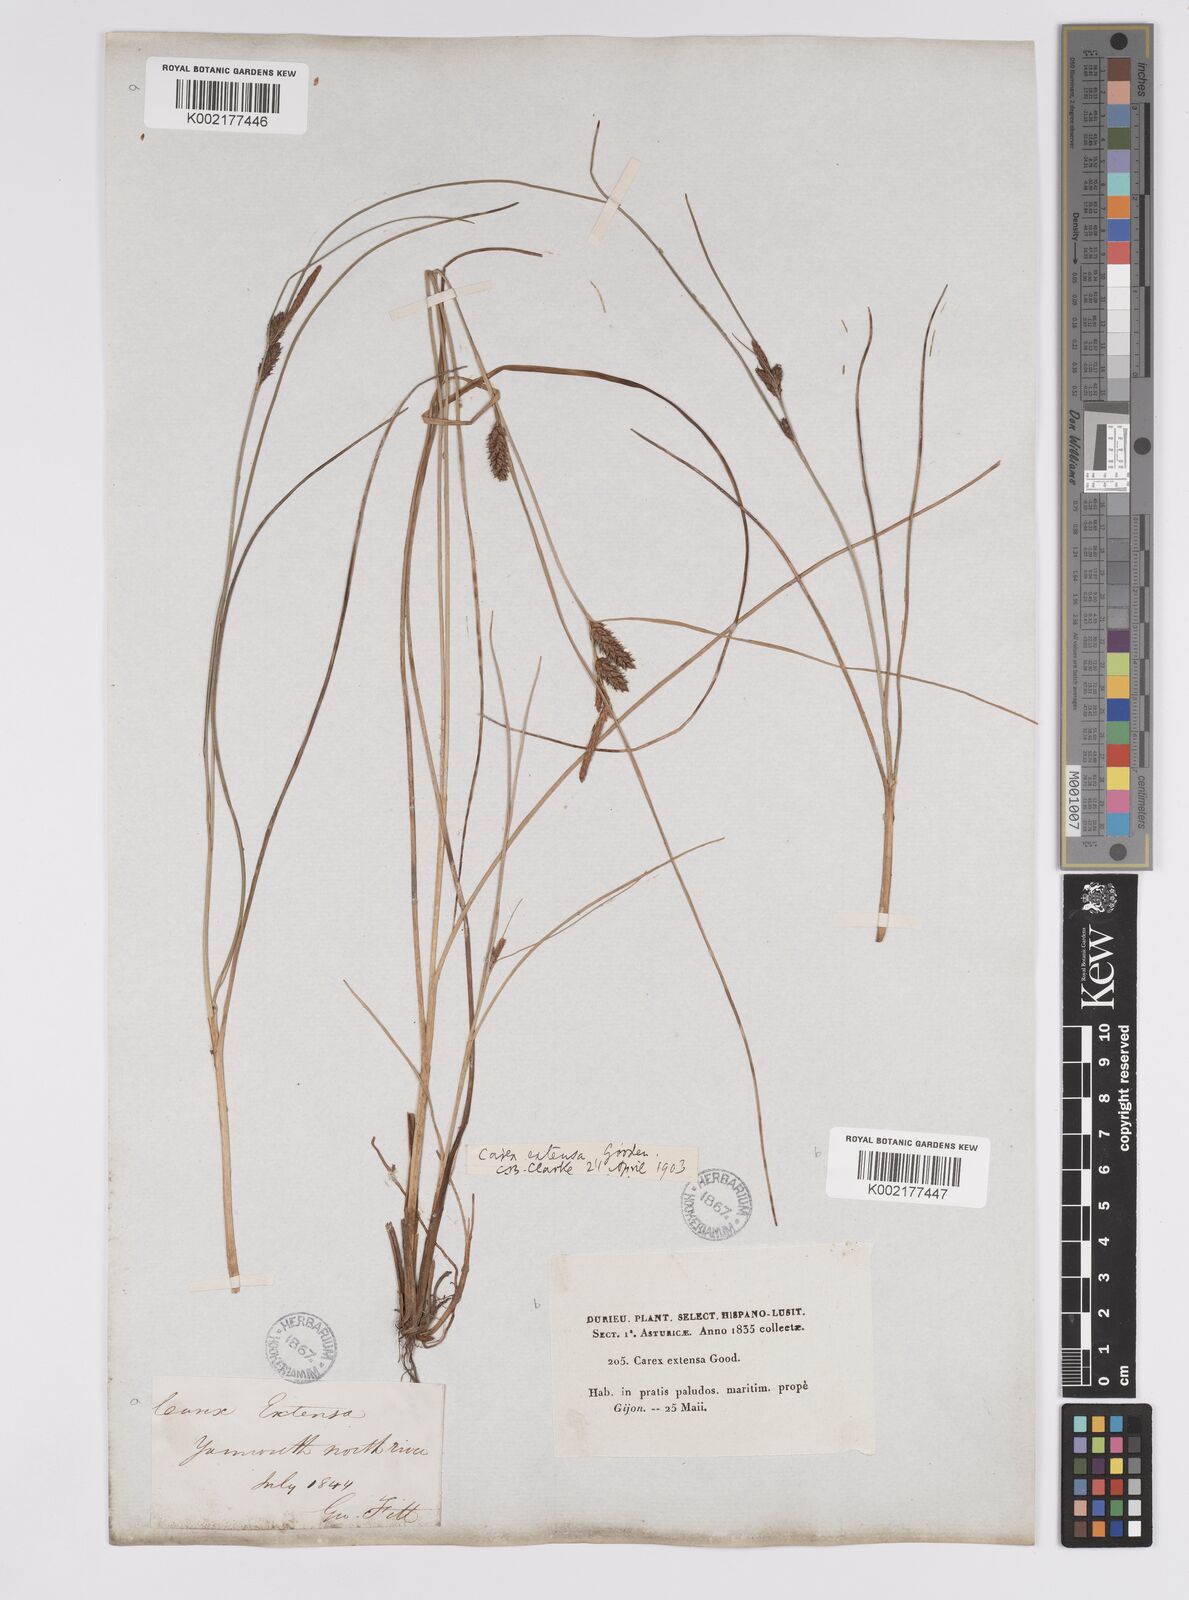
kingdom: Plantae
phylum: Tracheophyta
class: Liliopsida
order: Poales
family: Cyperaceae
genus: Carex
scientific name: Carex extensa
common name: Long-bracted sedge
